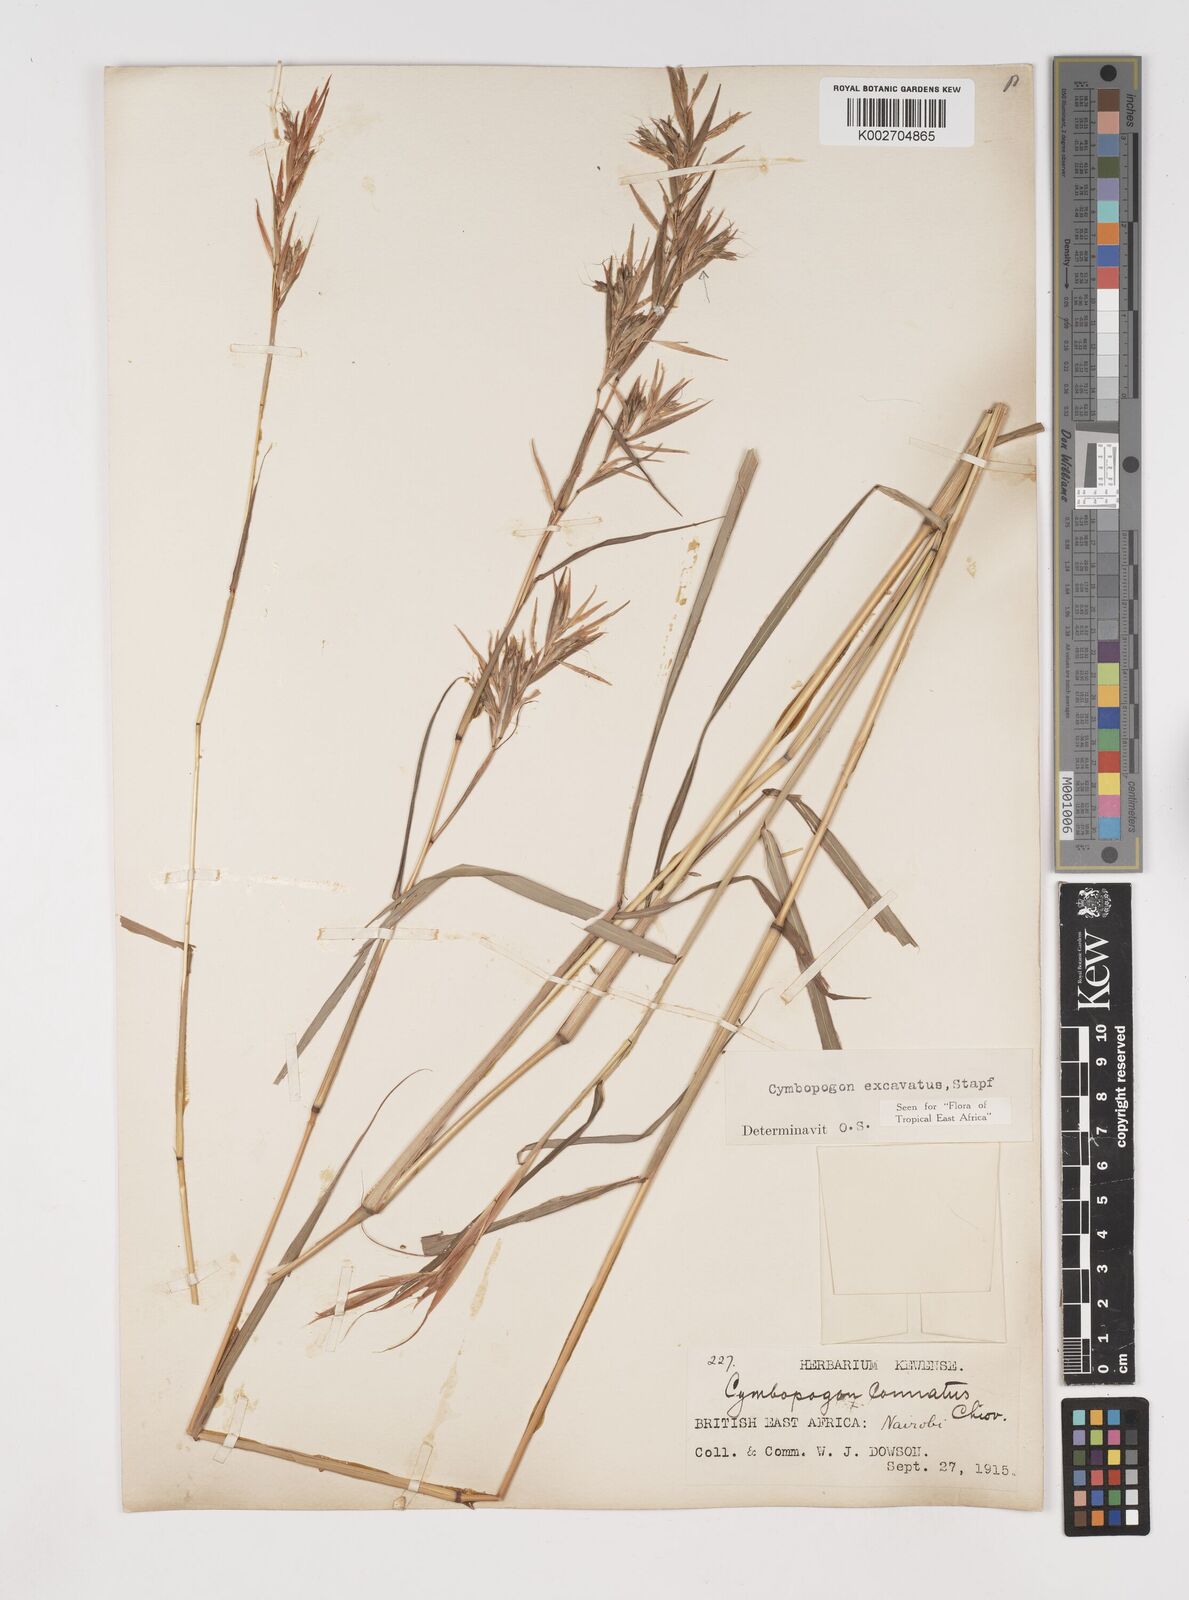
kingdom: Plantae
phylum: Tracheophyta
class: Liliopsida
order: Poales
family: Poaceae
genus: Cymbopogon
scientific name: Cymbopogon caesius
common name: Kachi grass
